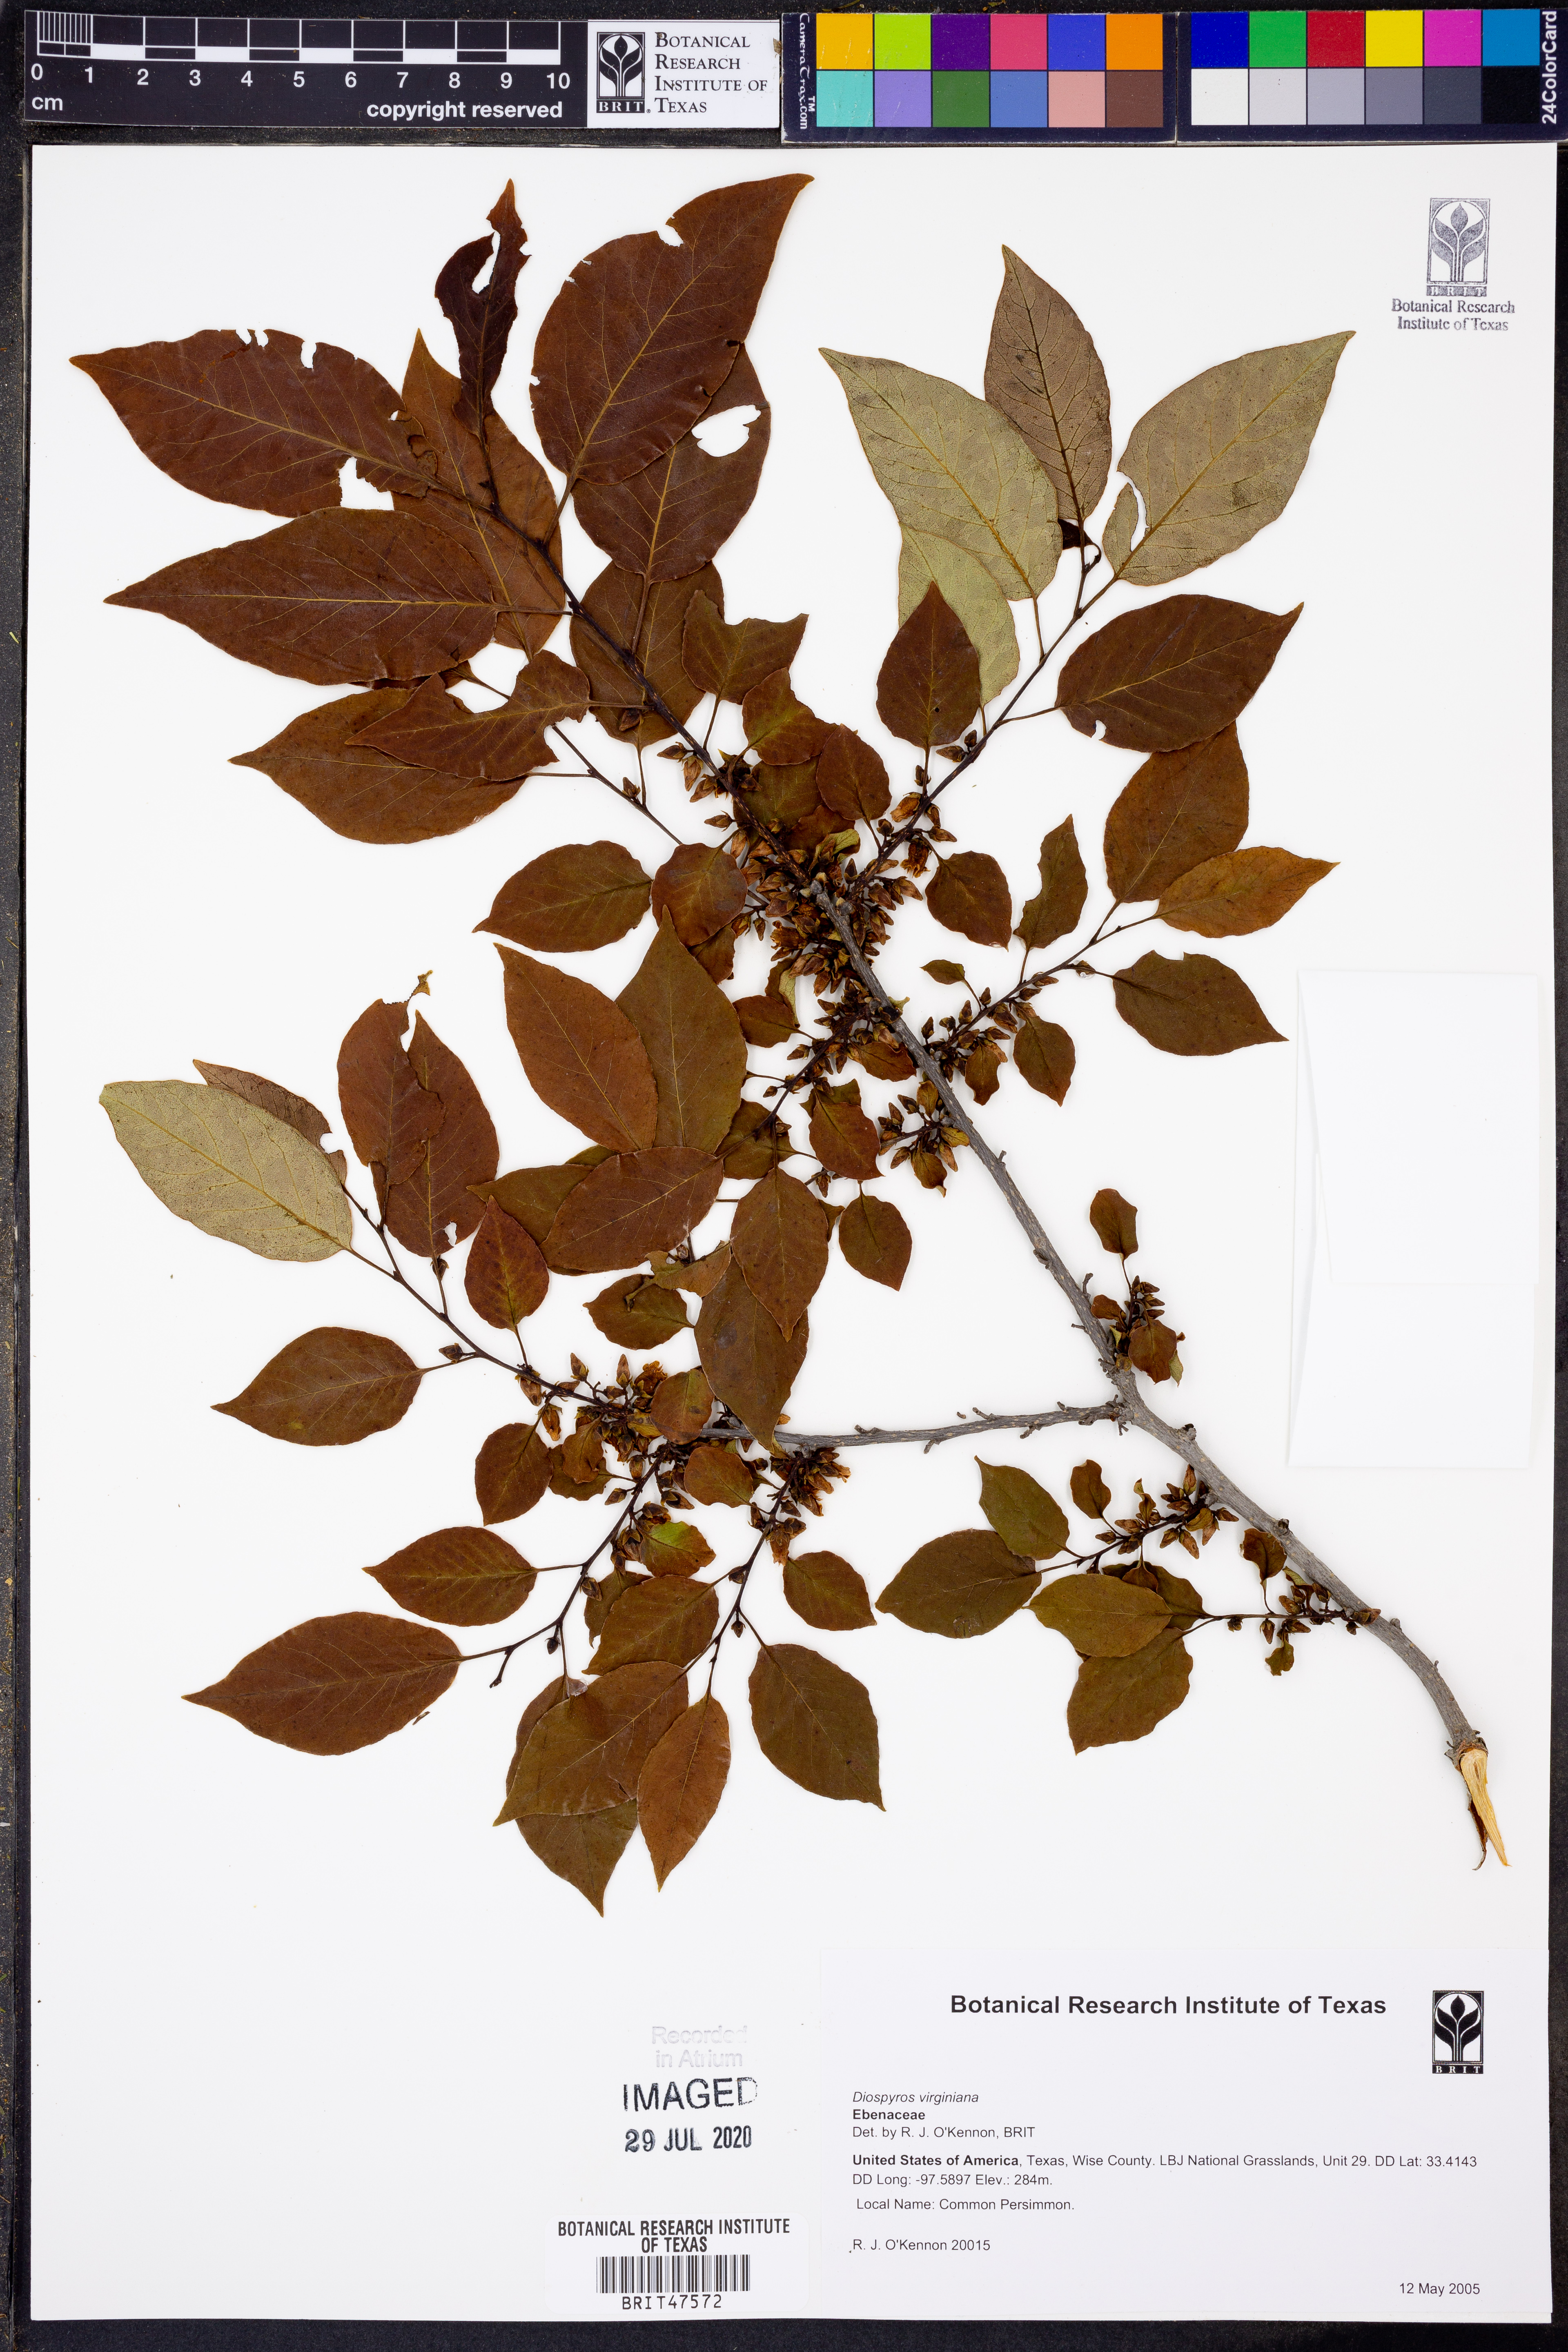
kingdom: Plantae
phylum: Tracheophyta
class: Magnoliopsida
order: Ericales
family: Ebenaceae
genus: Diospyros
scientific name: Diospyros virginiana
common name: Persimmon
